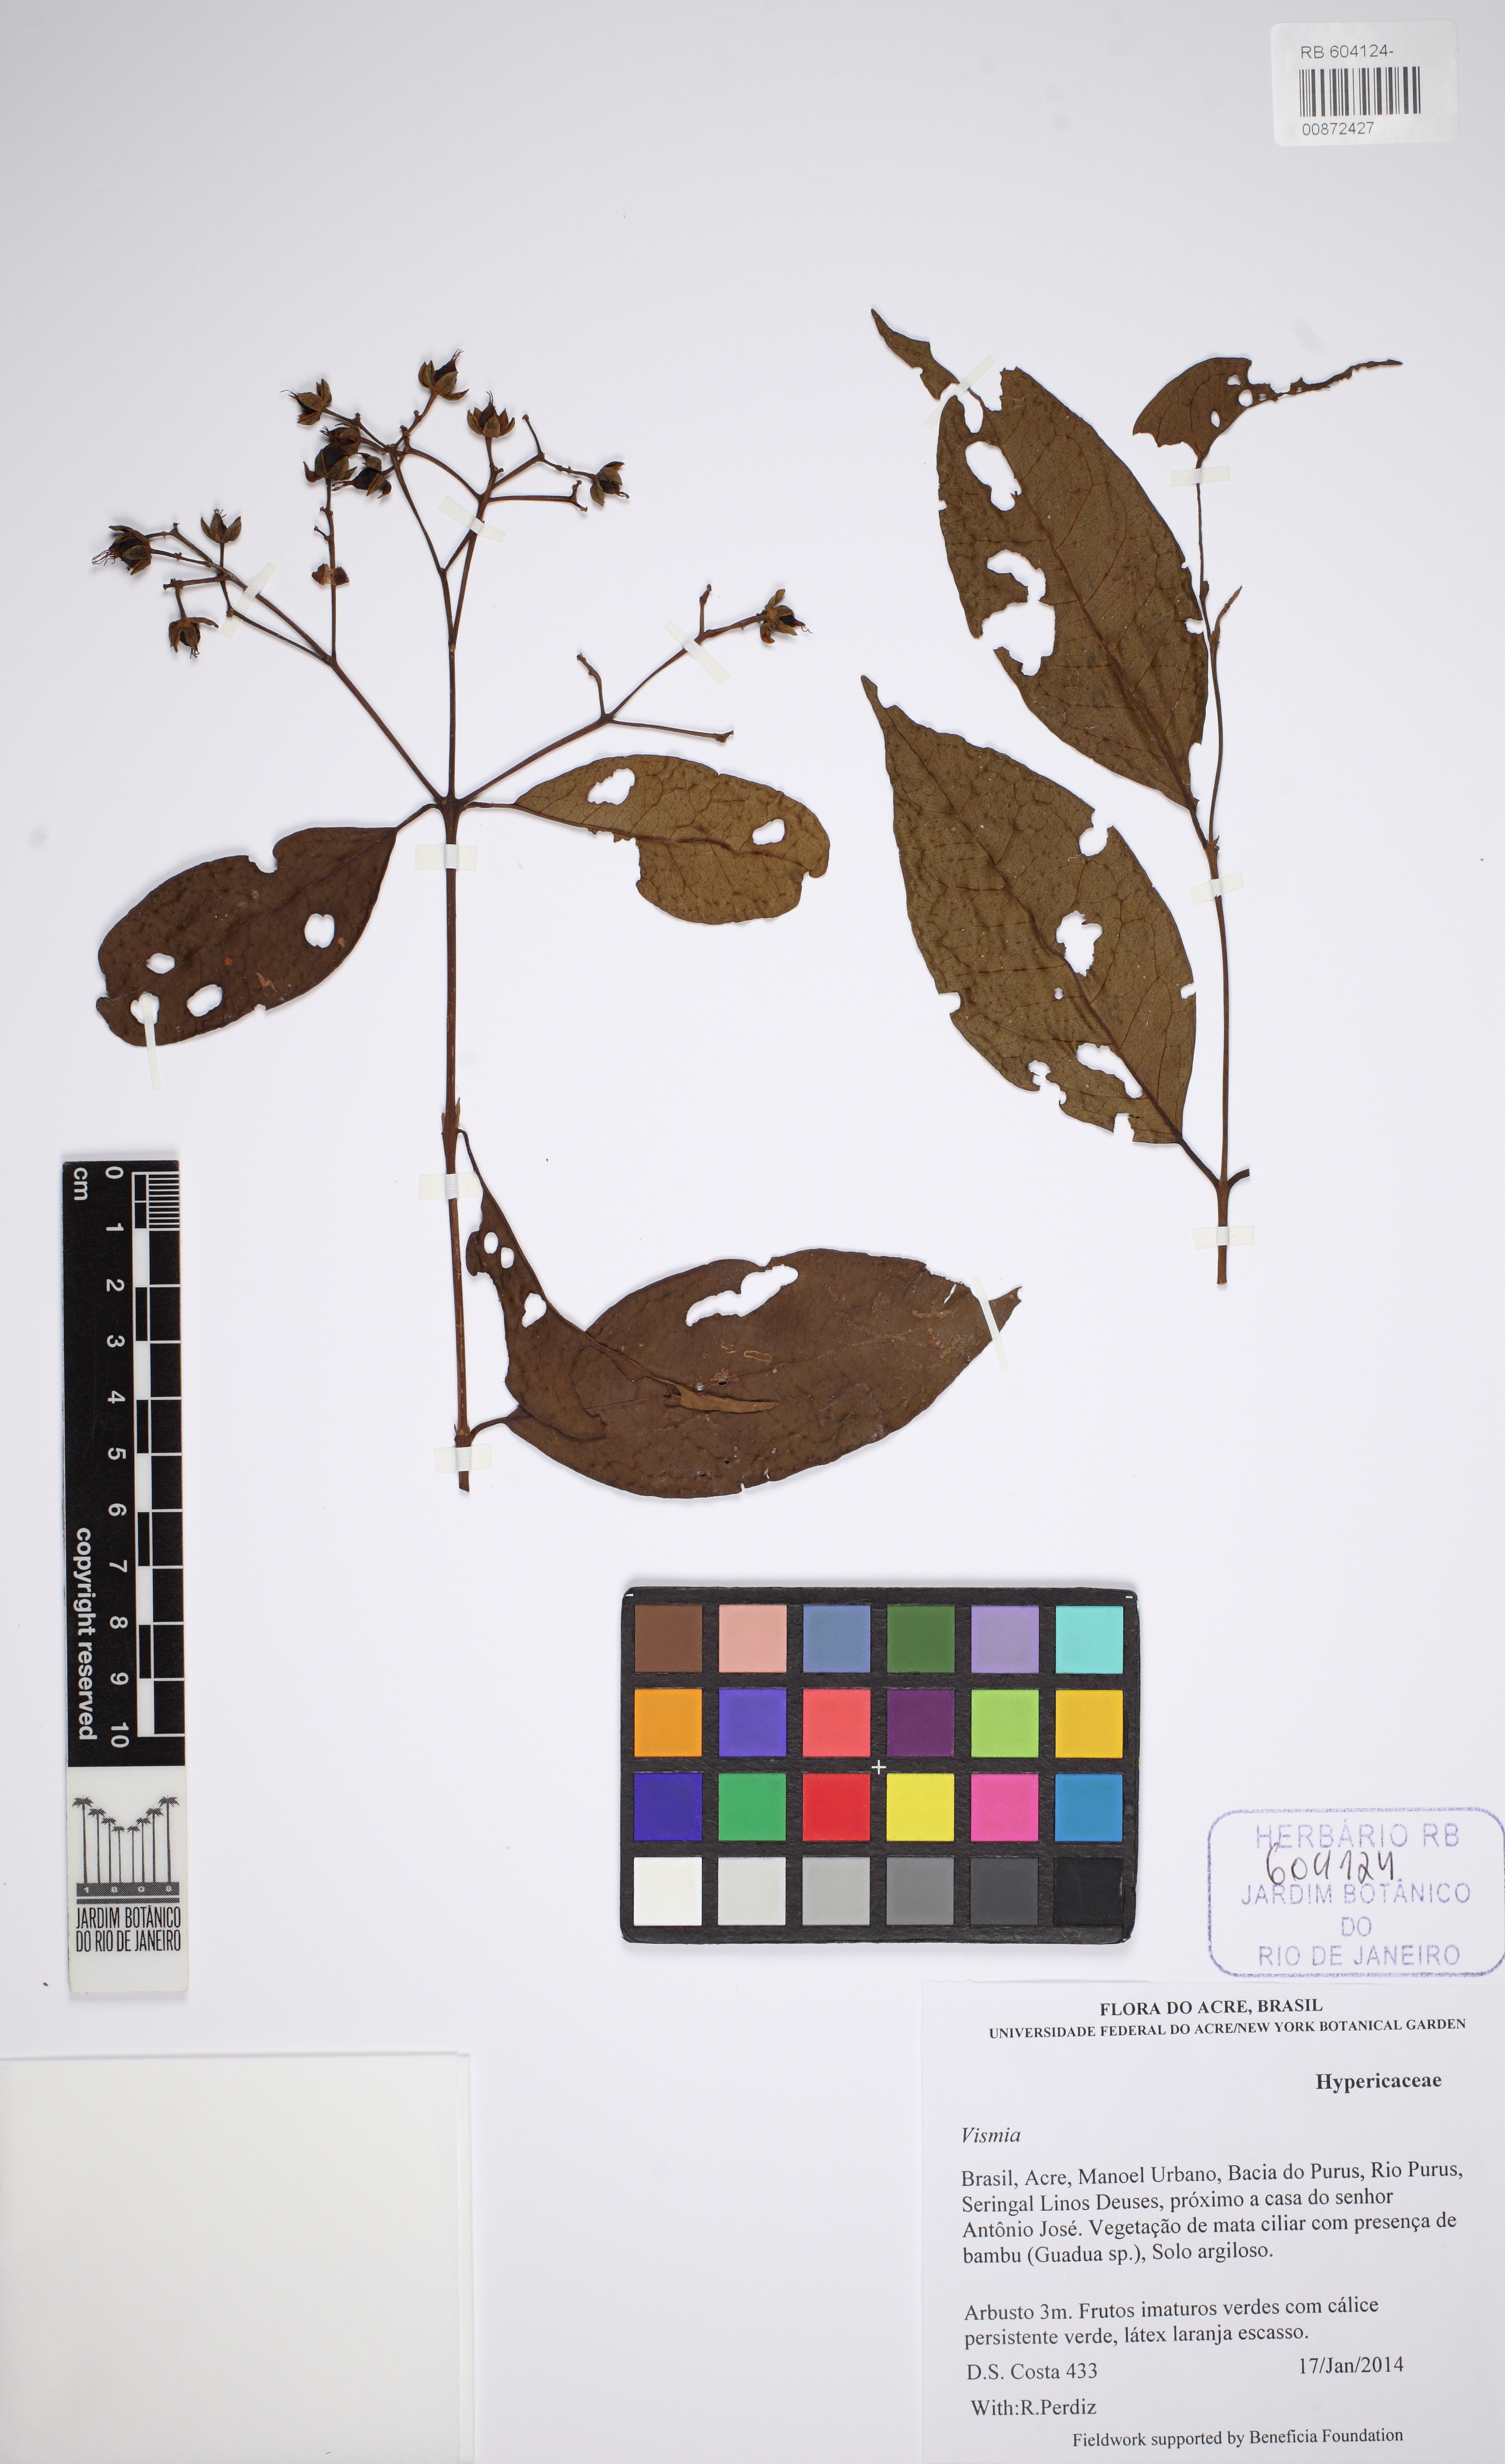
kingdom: Plantae
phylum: Tracheophyta
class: Magnoliopsida
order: Malpighiales
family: Hypericaceae
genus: Vismia
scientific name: Vismia
